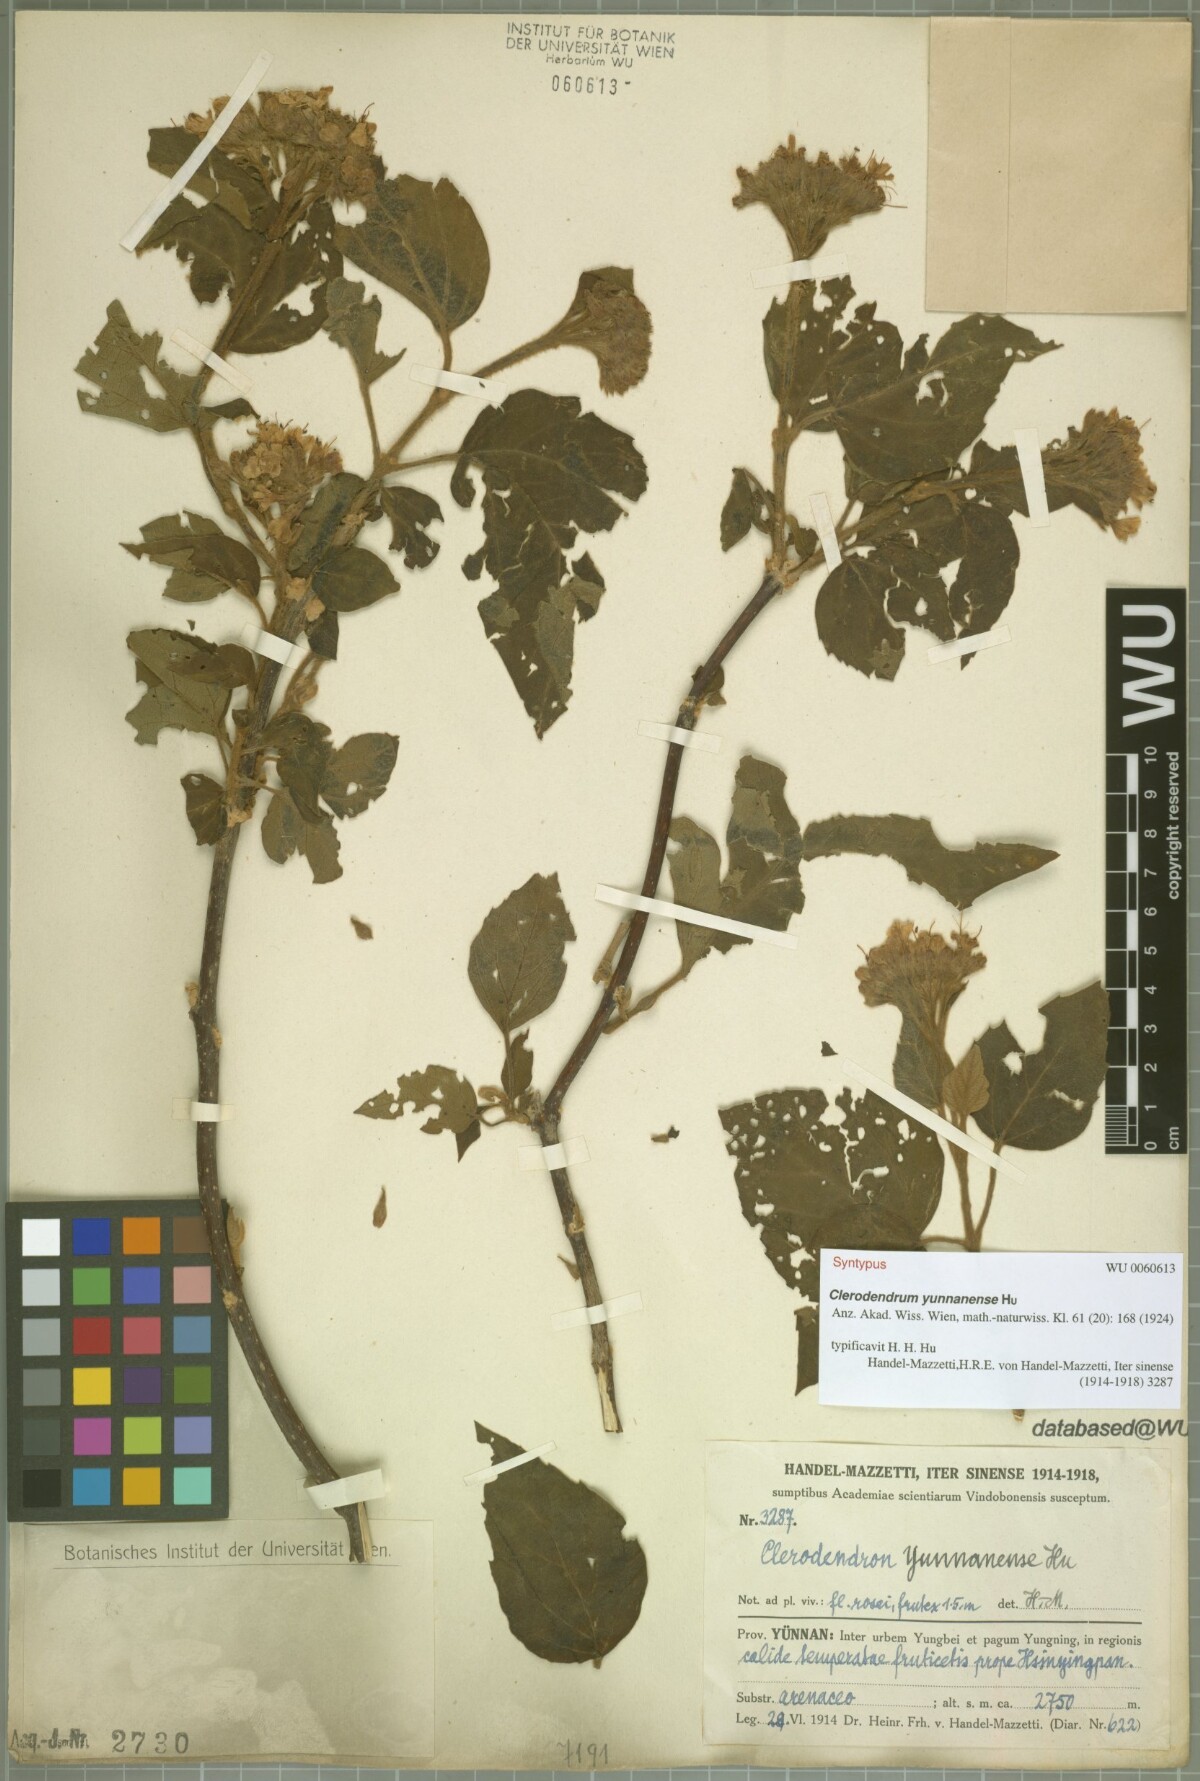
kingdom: Plantae
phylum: Tracheophyta
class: Magnoliopsida
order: Lamiales
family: Lamiaceae
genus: Clerodendrum
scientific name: Clerodendrum yunnanense
